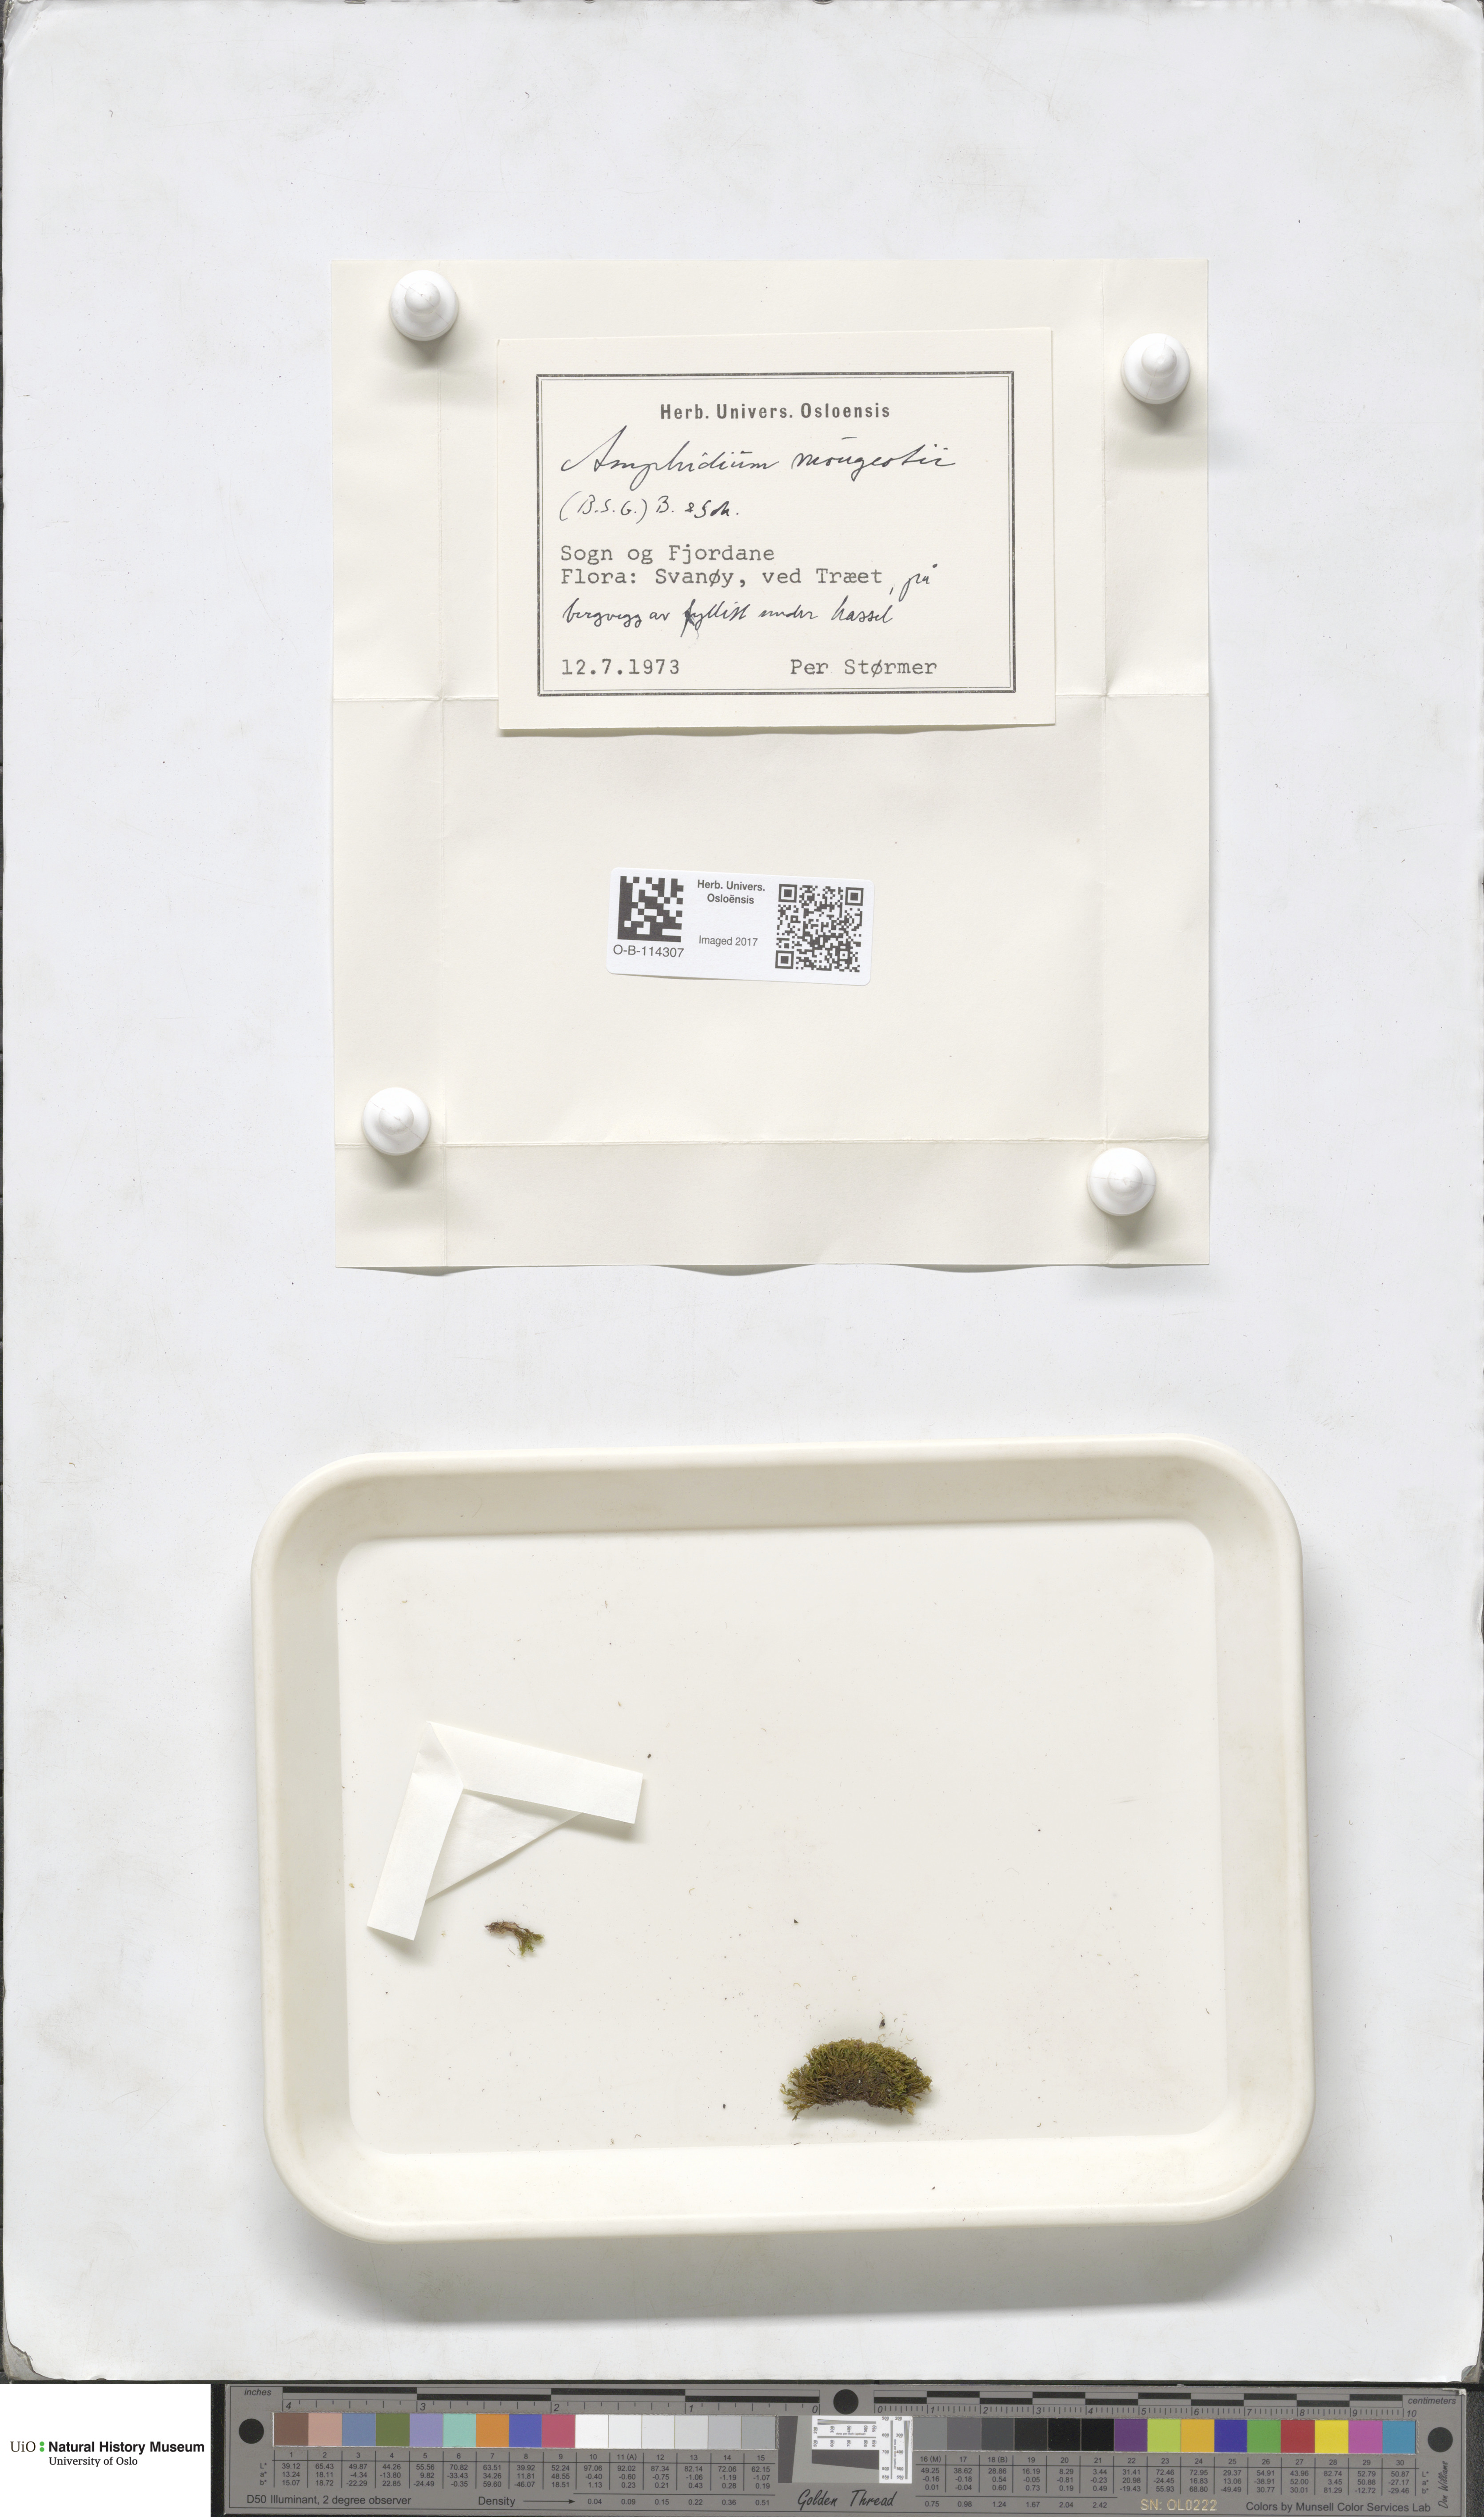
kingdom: Plantae
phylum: Bryophyta
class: Bryopsida
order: Dicranales
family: Amphidiaceae
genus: Amphidium
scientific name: Amphidium mougeotii
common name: Mougeot's yoke moss
